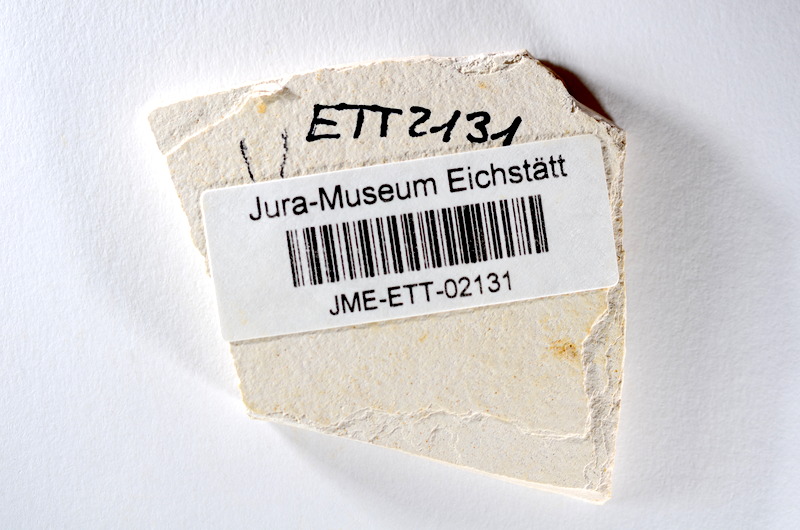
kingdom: Animalia
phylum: Chordata
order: Salmoniformes
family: Orthogonikleithridae
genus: Orthogonikleithrus
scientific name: Orthogonikleithrus hoelli
